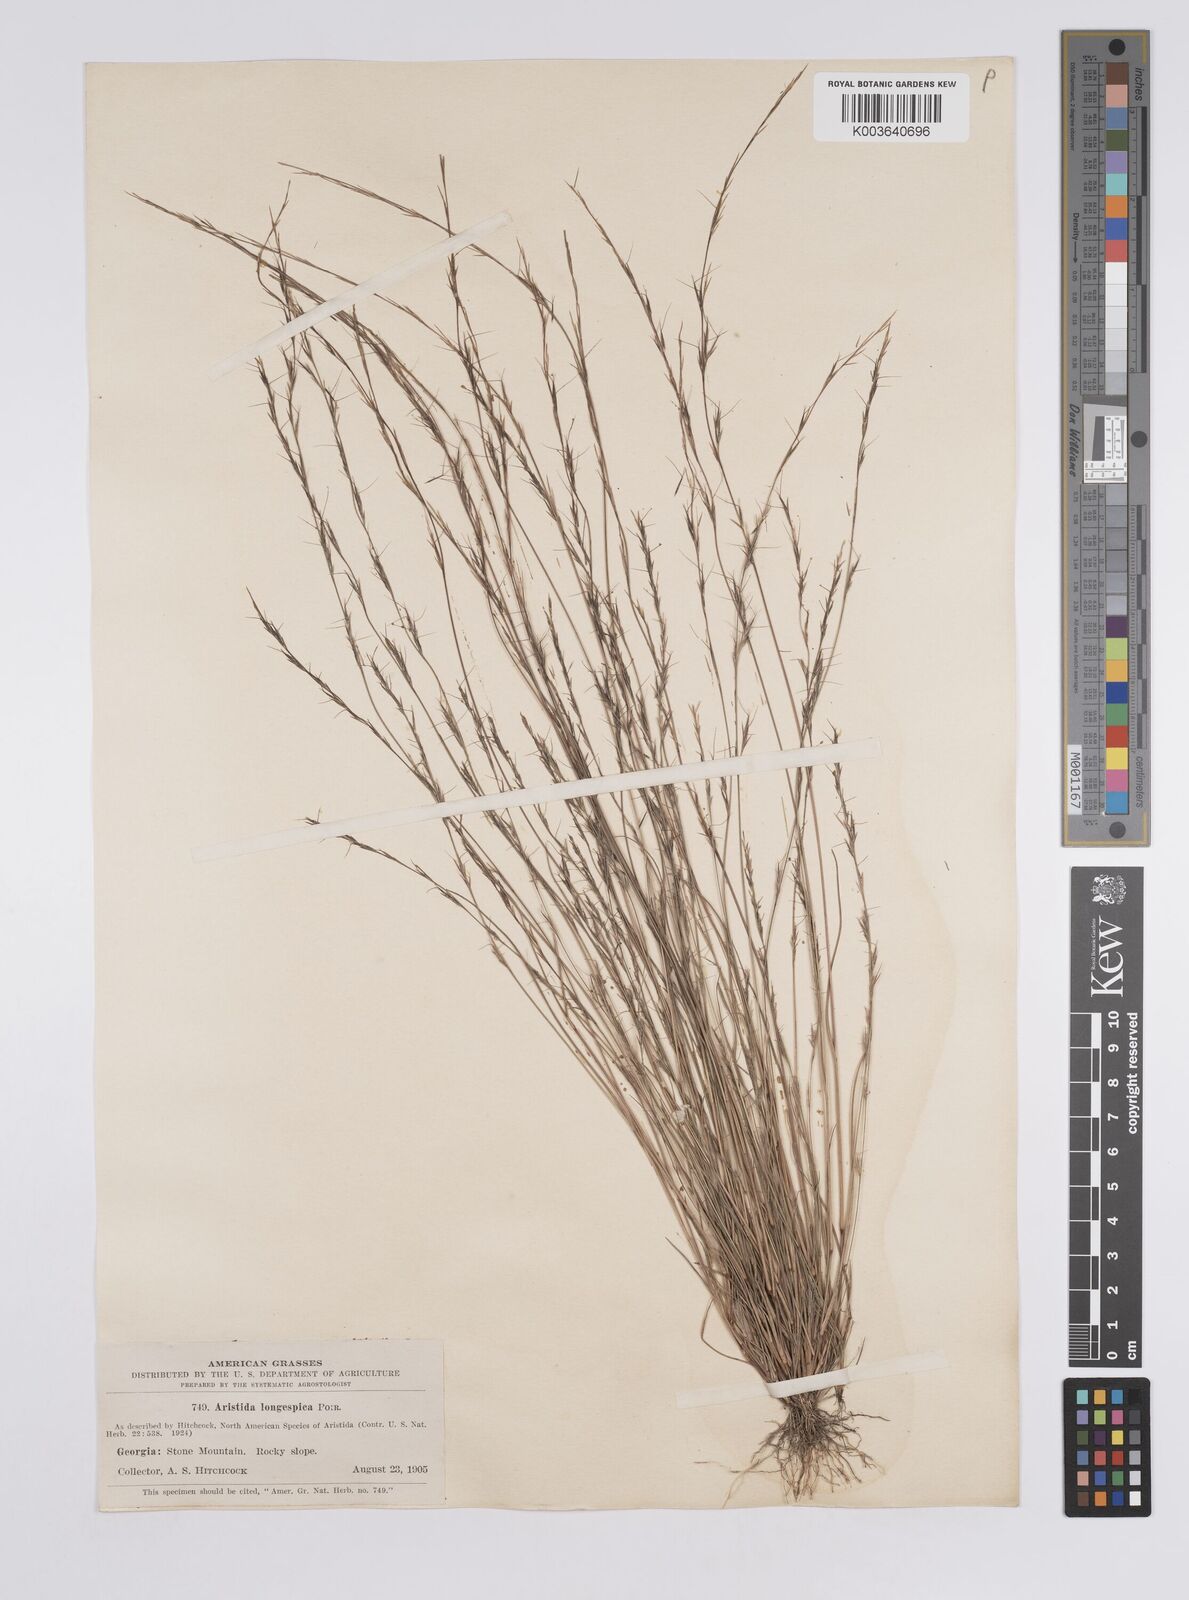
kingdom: Plantae
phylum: Tracheophyta
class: Liliopsida
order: Poales
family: Poaceae
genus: Aristida
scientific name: Aristida longespica
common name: Long-spiked triple-awned grass
